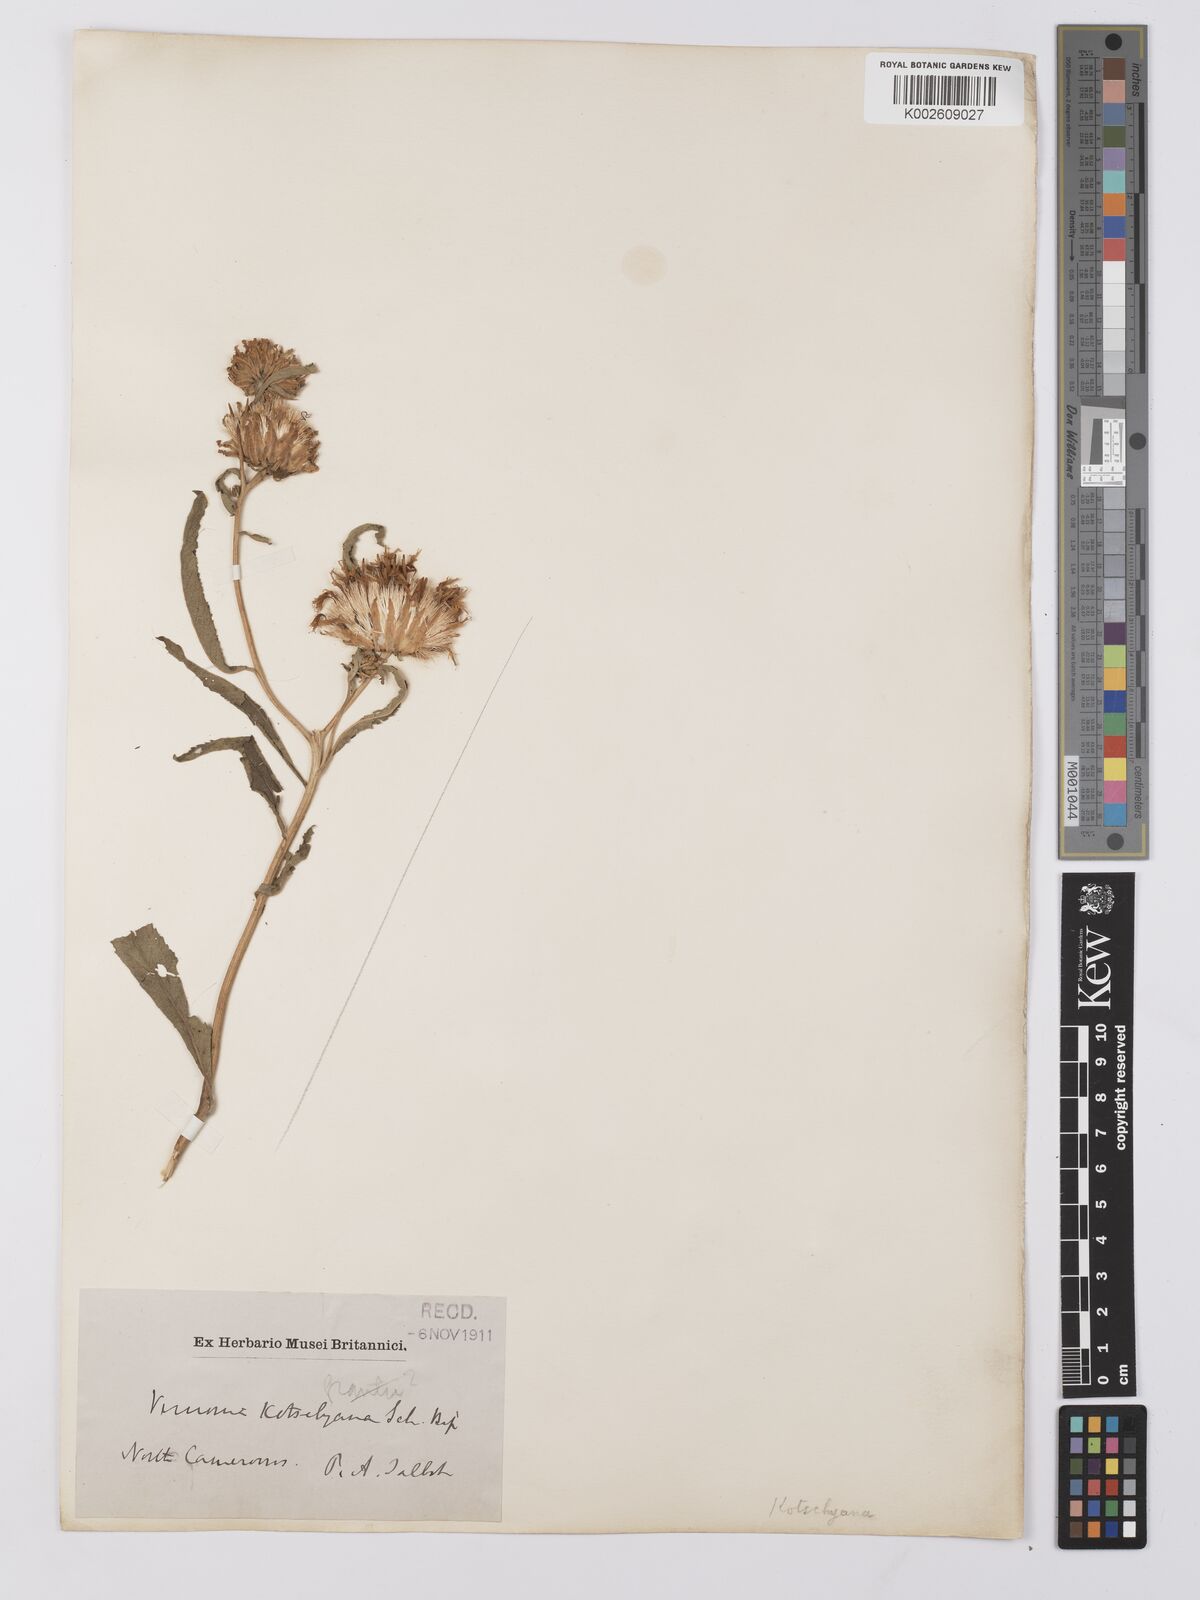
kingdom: Plantae
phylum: Tracheophyta
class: Magnoliopsida
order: Asterales
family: Asteraceae
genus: Baccharoides
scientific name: Baccharoides adoensis
